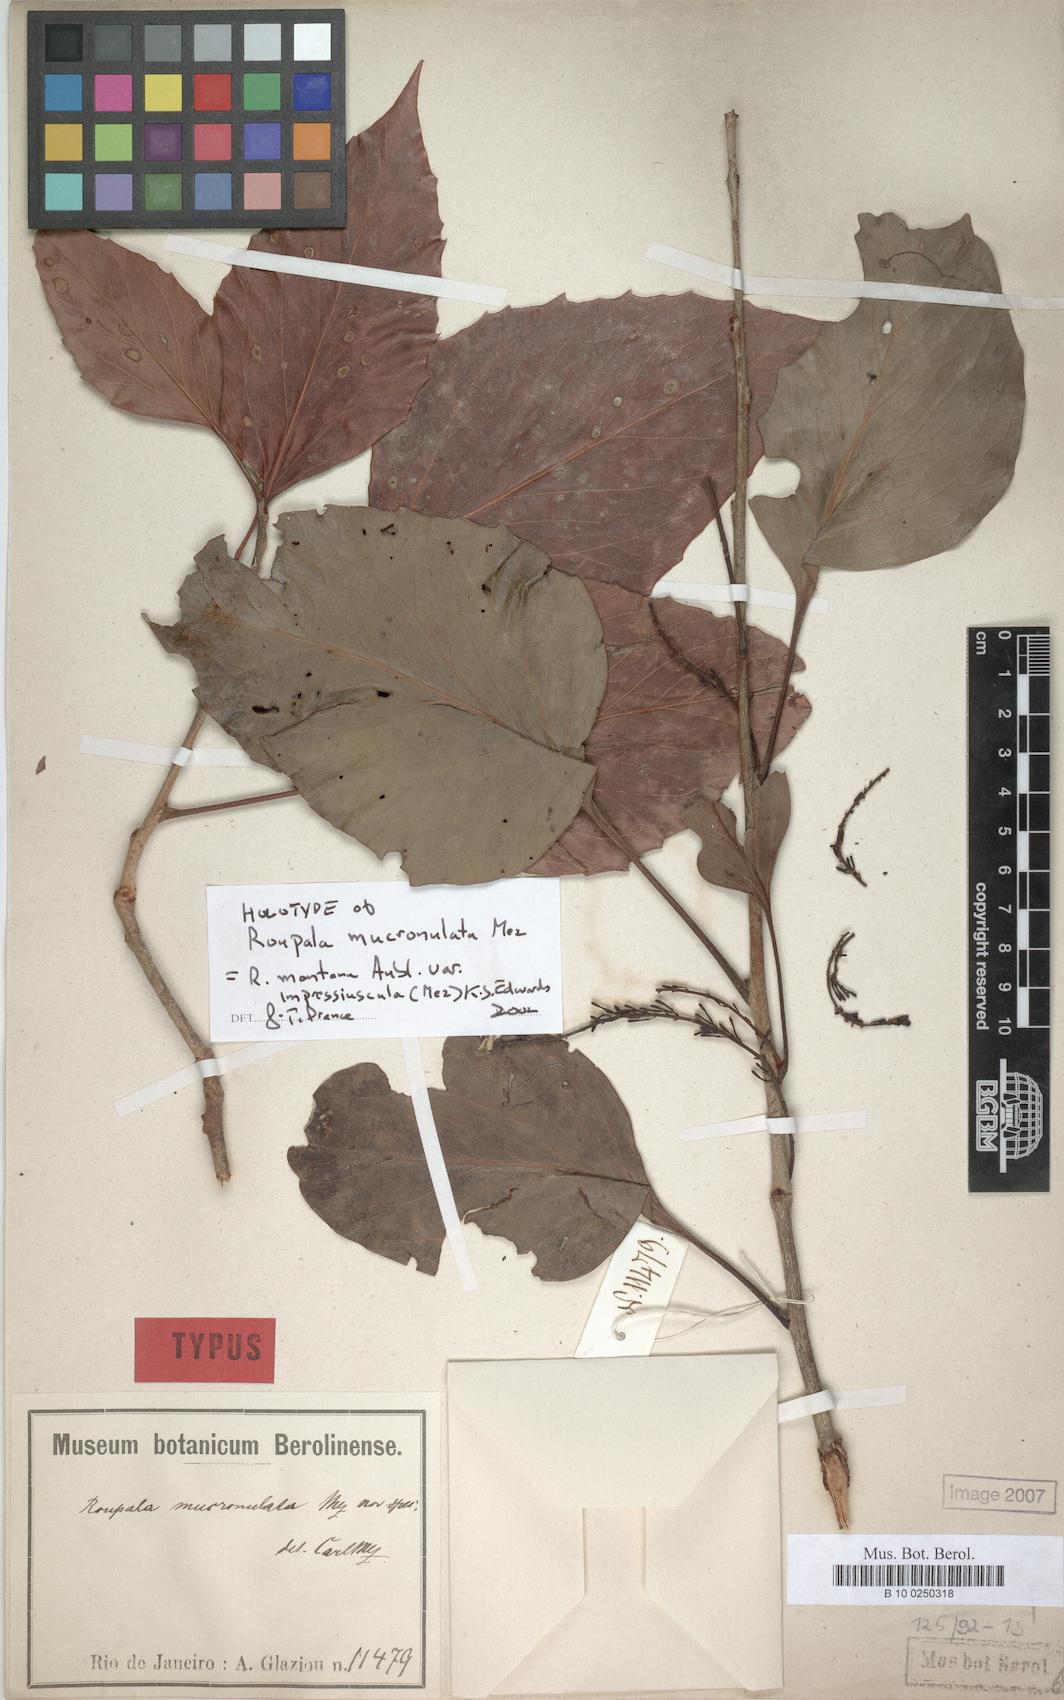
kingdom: Plantae
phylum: Tracheophyta
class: Magnoliopsida
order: Proteales
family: Proteaceae
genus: Roupala
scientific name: Roupala montana
